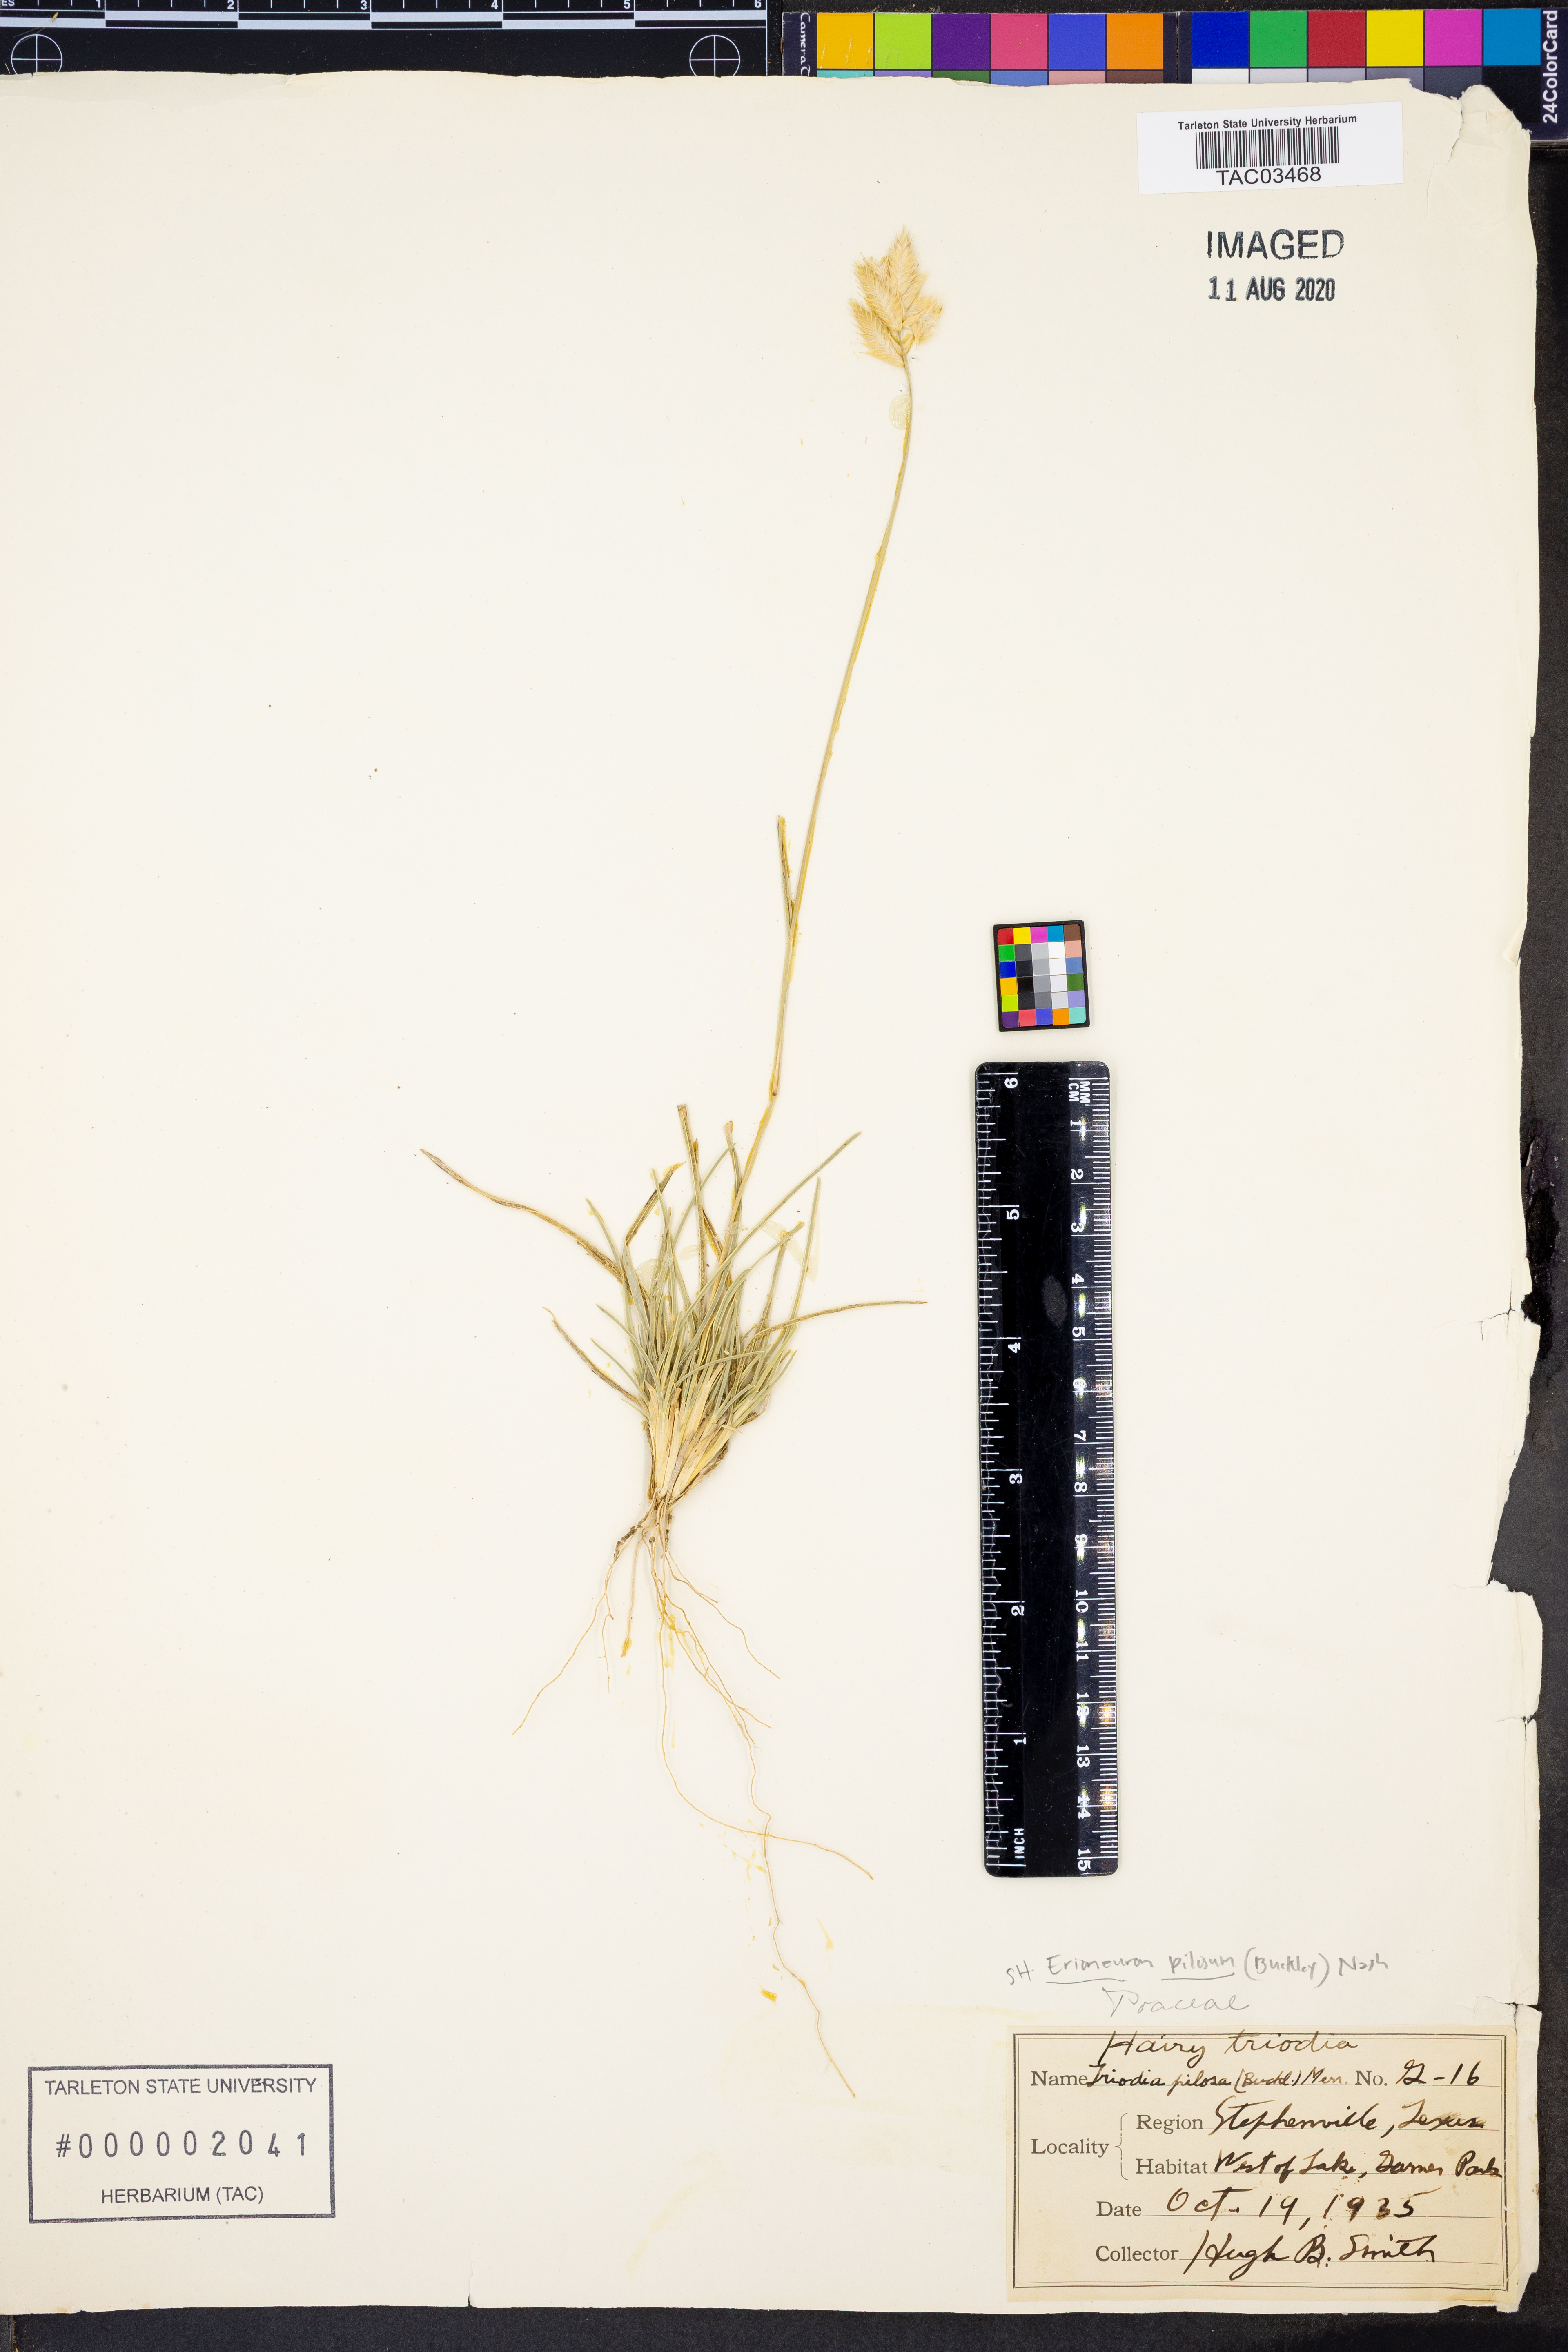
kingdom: Plantae
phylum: Tracheophyta
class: Liliopsida
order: Poales
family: Poaceae
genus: Erioneuron
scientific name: Erioneuron pilosum
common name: Hairy woolly grass
